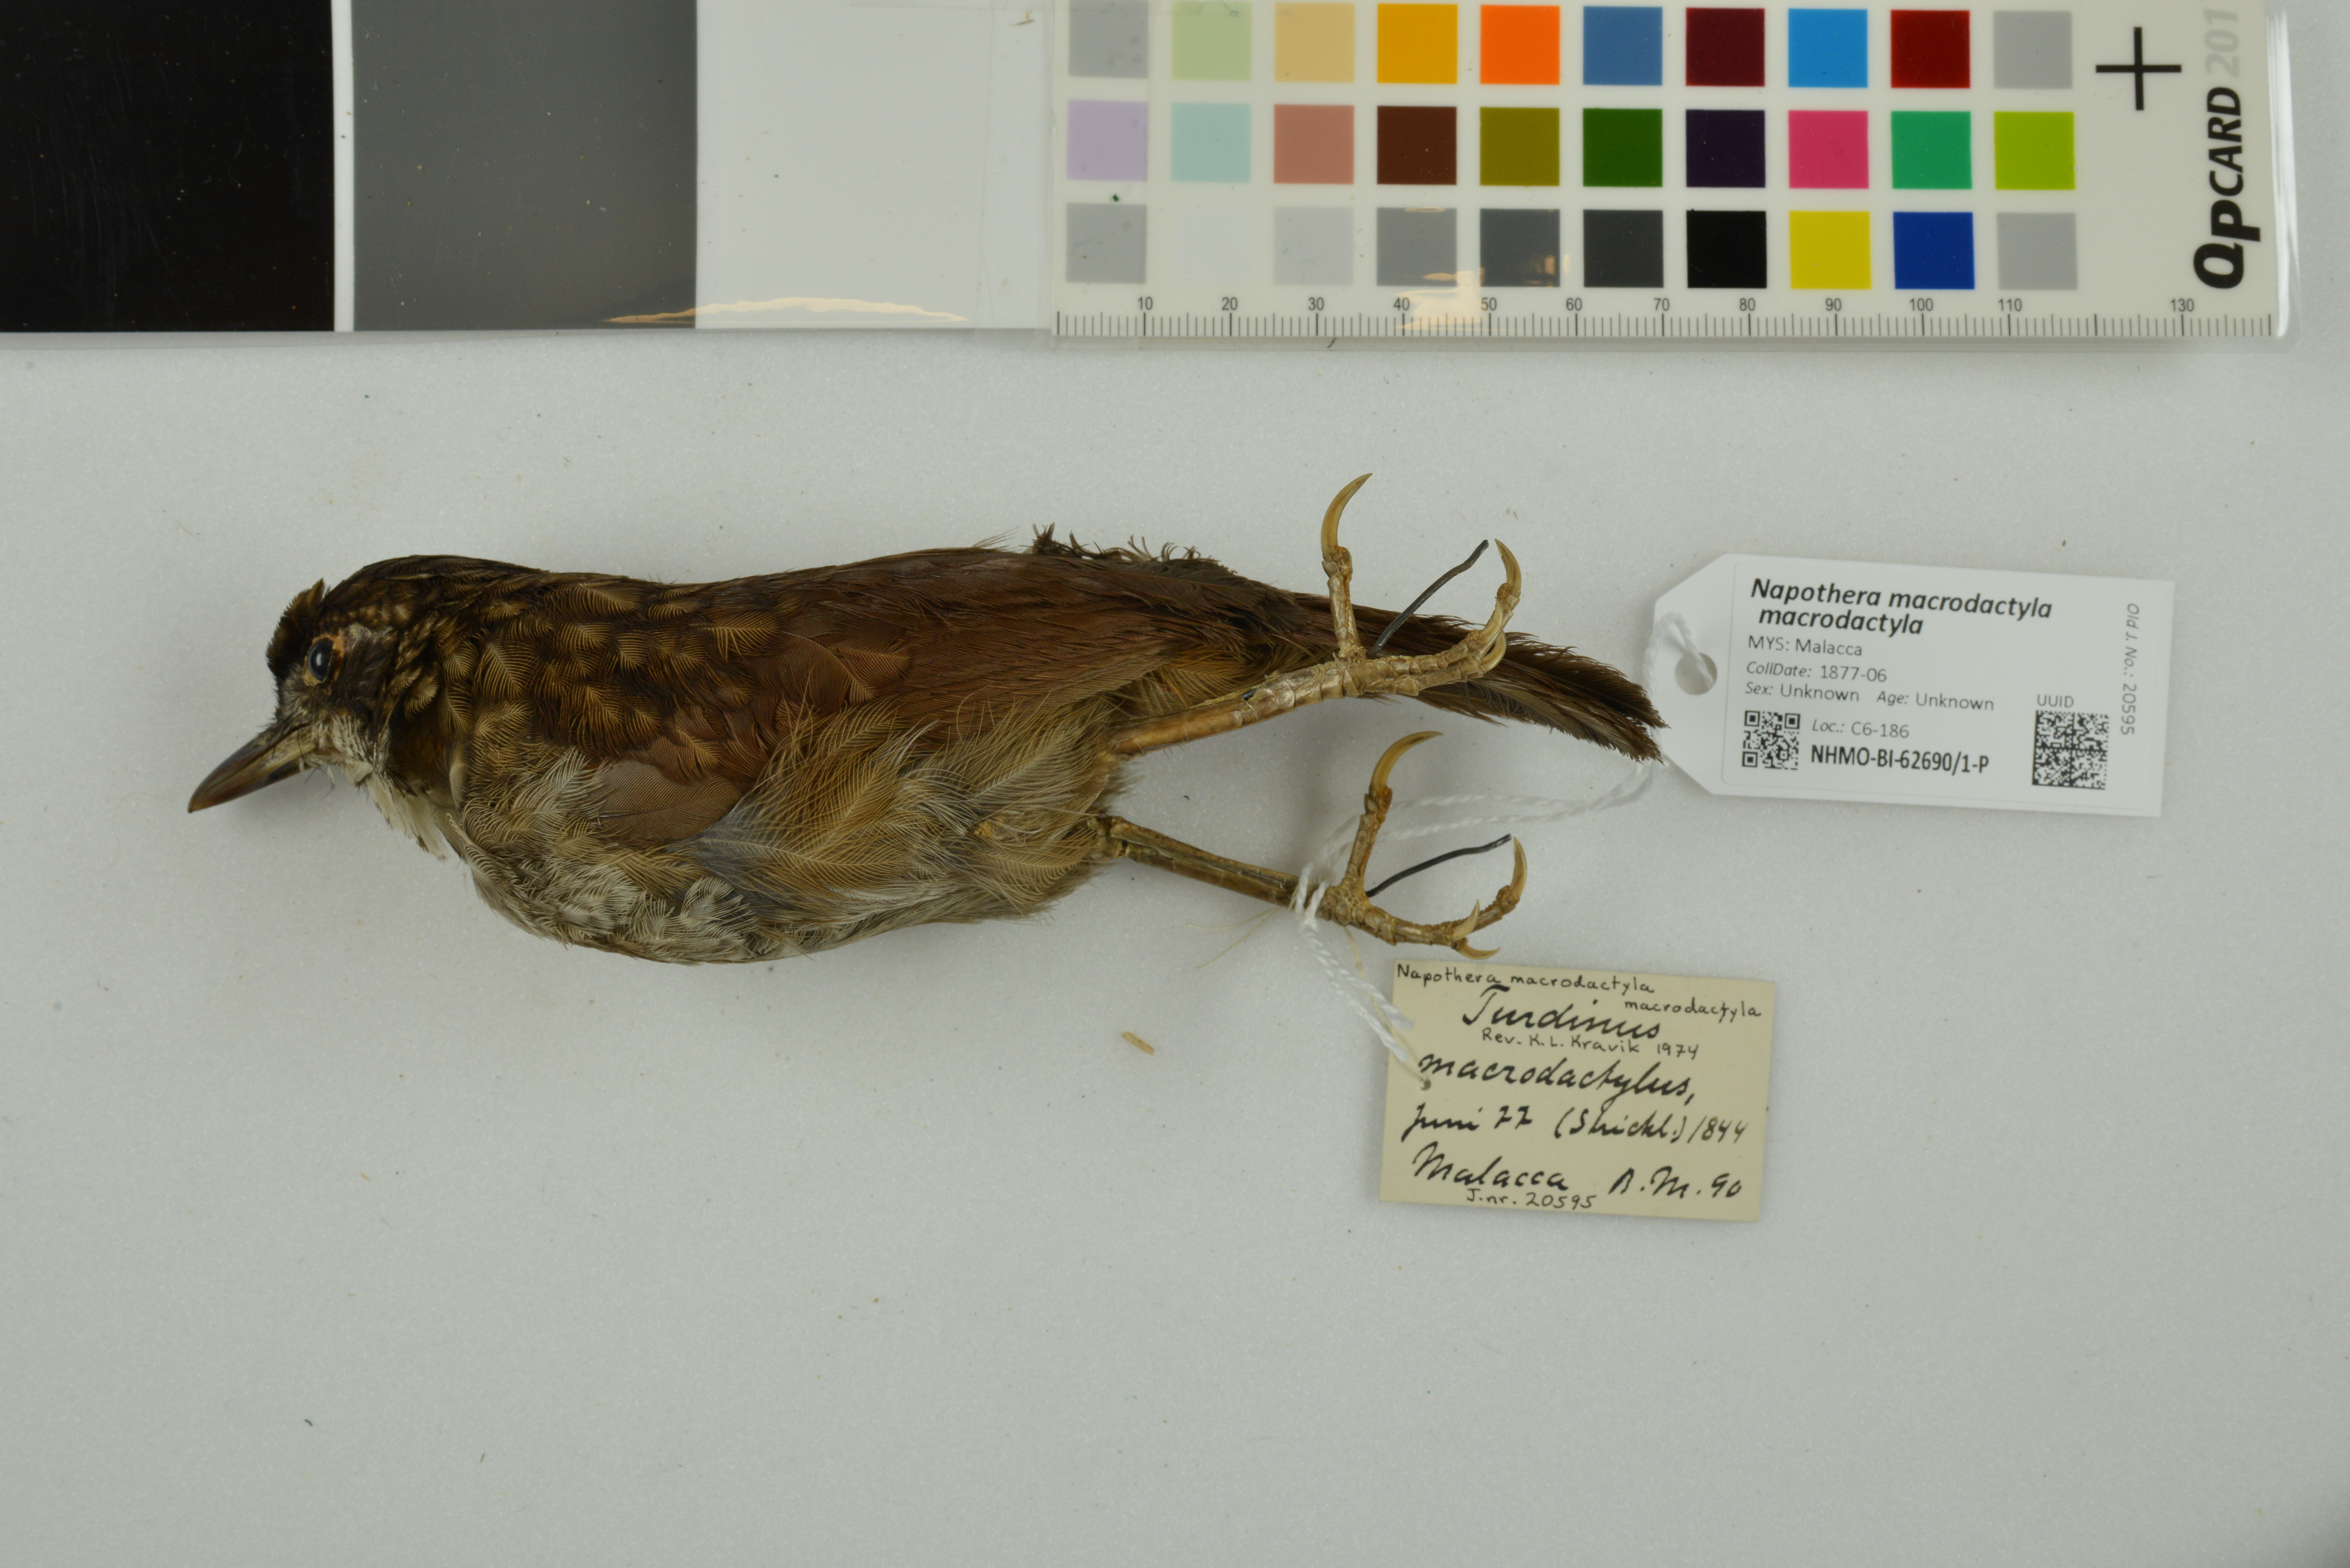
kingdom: Animalia
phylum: Chordata
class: Aves
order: Passeriformes
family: Pellorneidae
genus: Napothera
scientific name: Napothera macrodactyla
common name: Large wren-babbler
